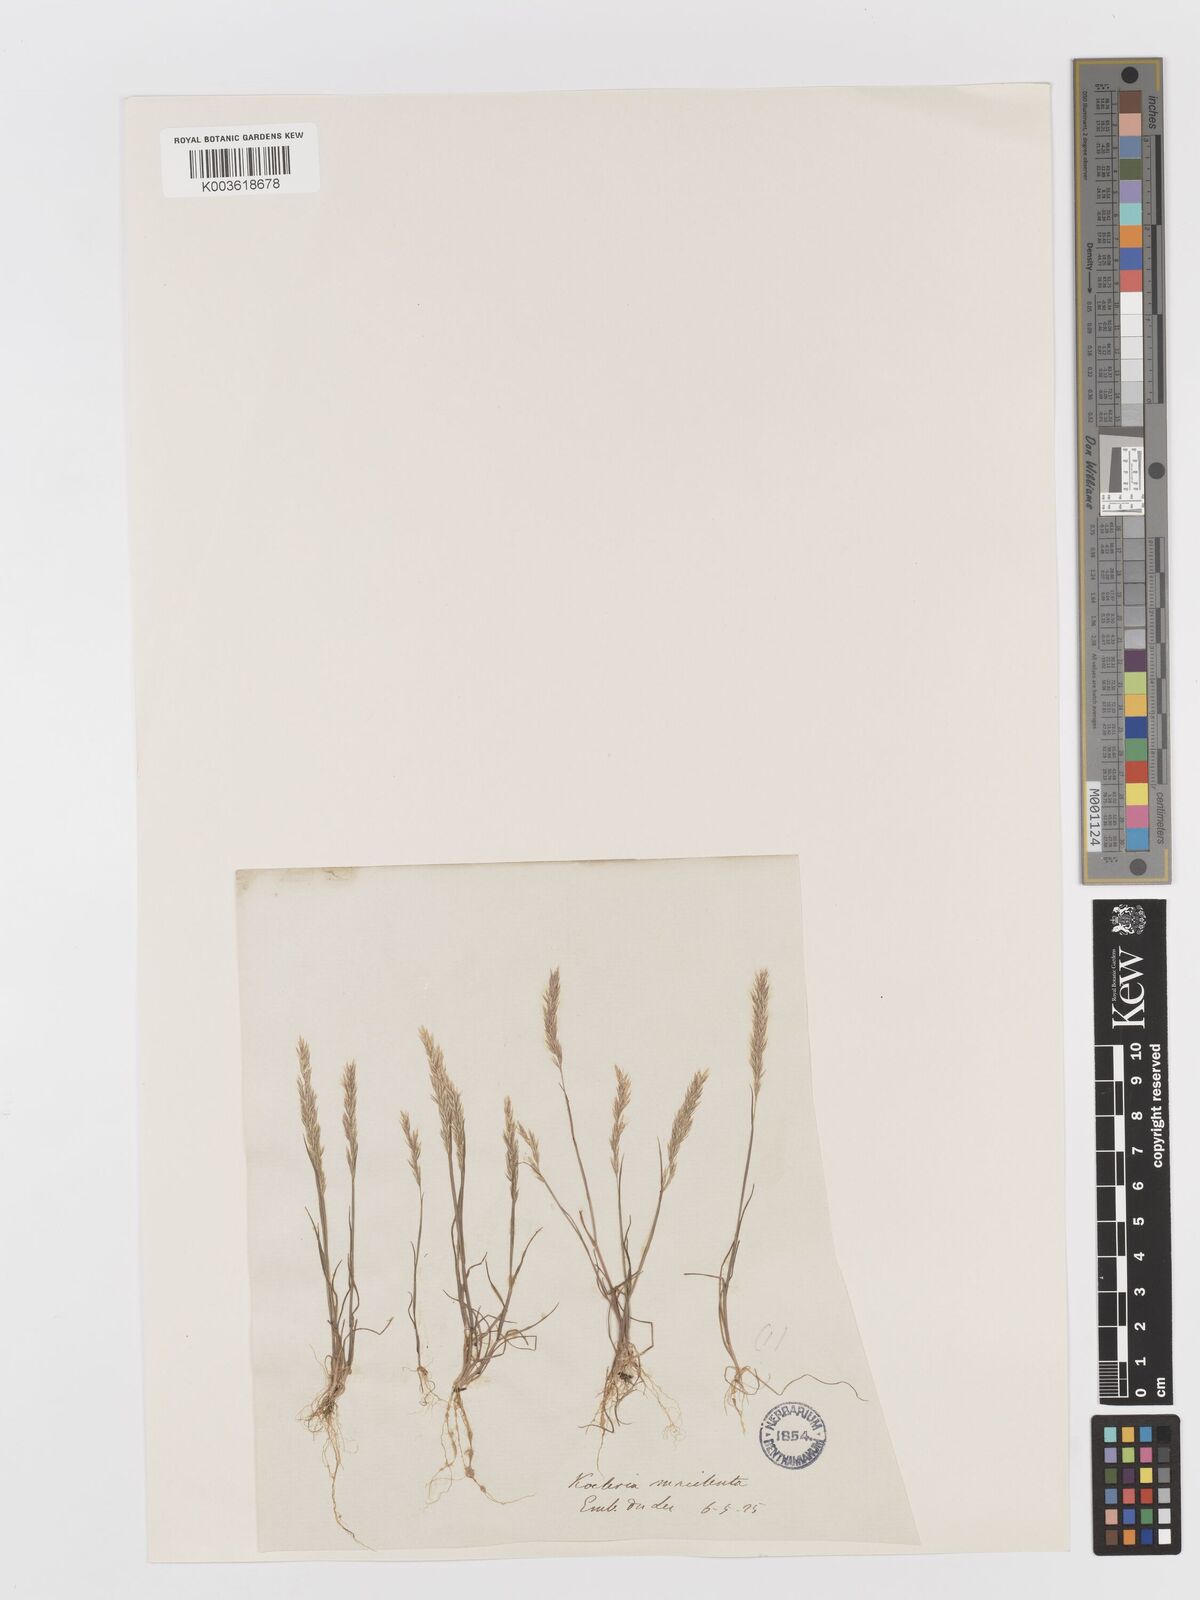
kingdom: Plantae
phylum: Tracheophyta
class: Liliopsida
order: Poales
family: Poaceae
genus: Avellinia
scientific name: Avellinia festucoides
